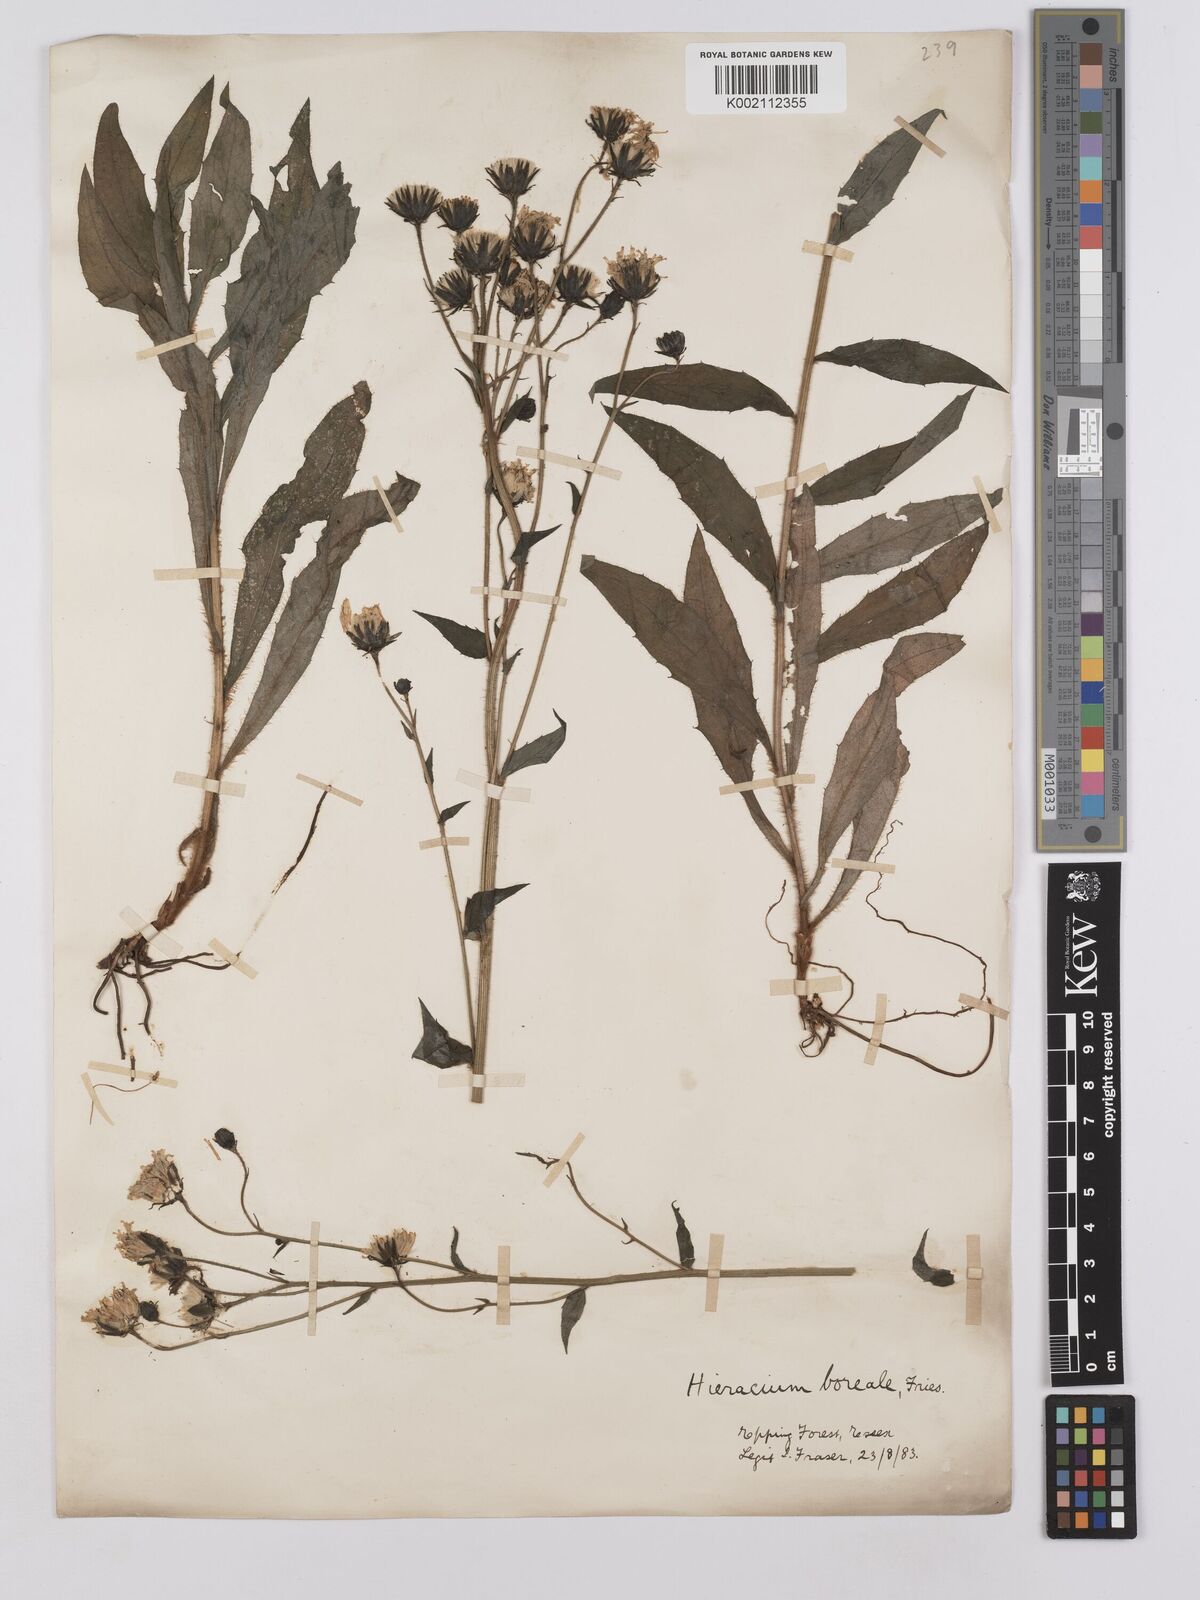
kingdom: Plantae
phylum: Tracheophyta
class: Magnoliopsida
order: Asterales
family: Asteraceae
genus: Hieracium
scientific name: Hieracium sabaudum
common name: New england hawkweed
